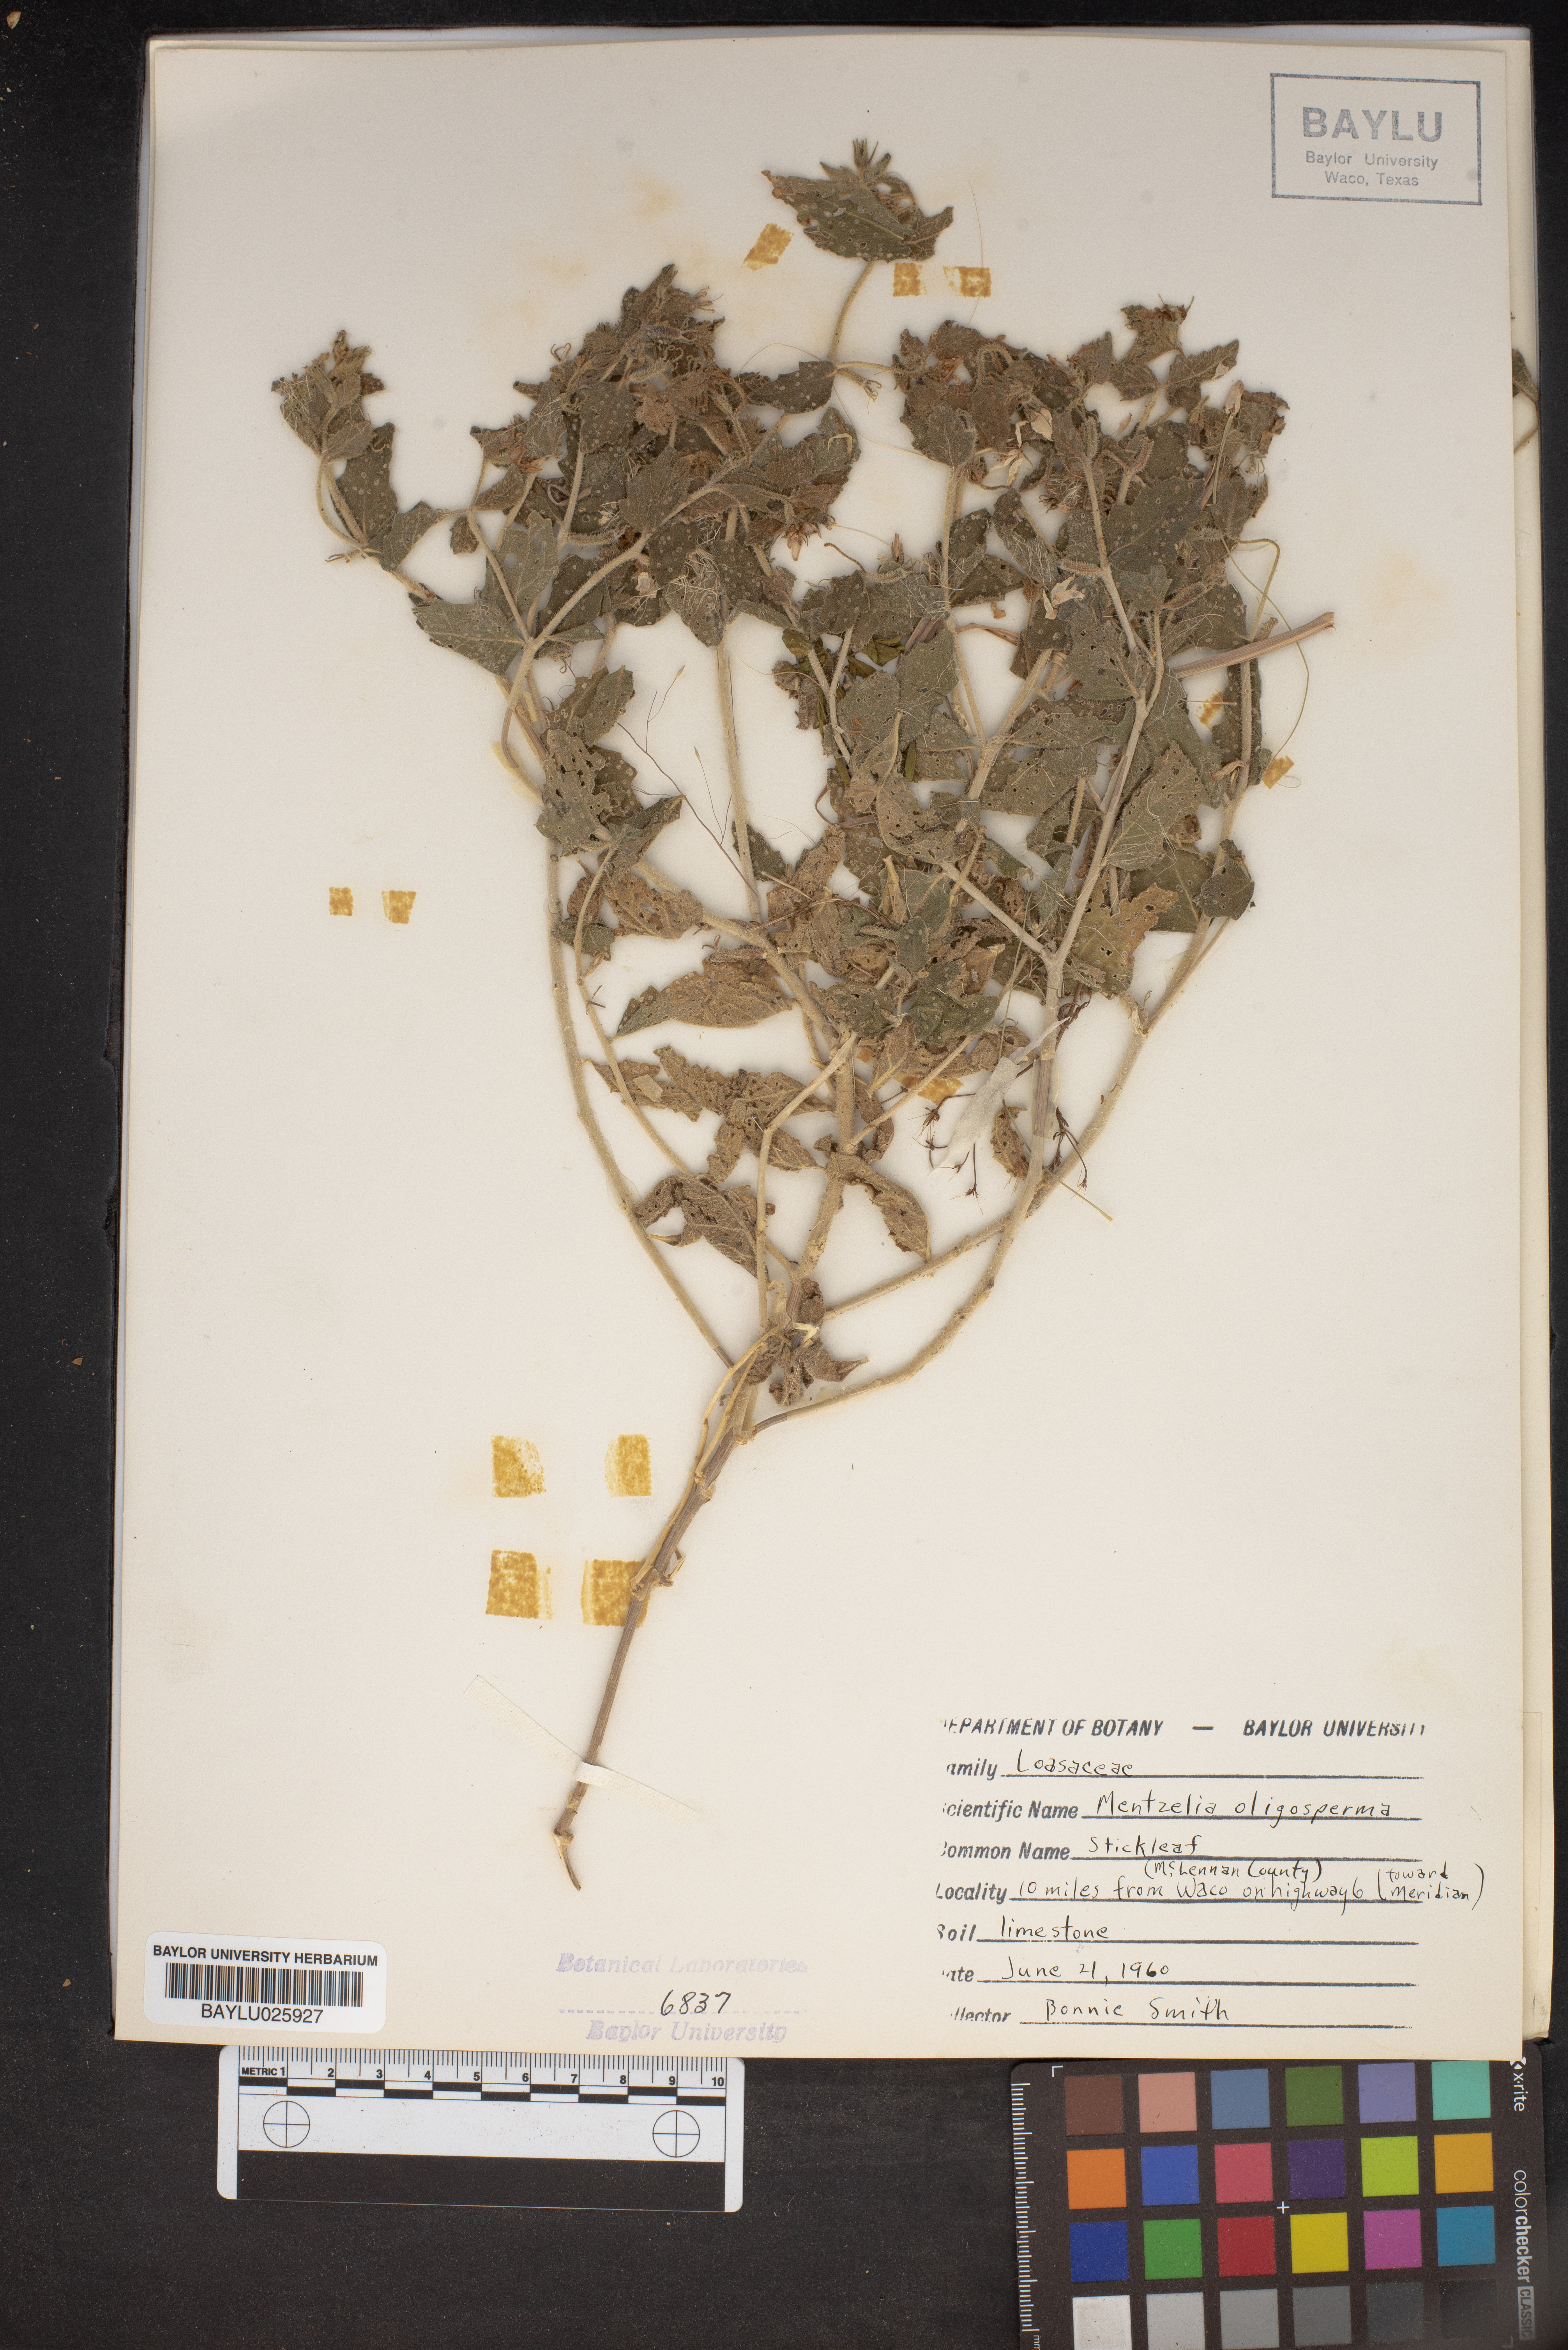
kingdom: Plantae
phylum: Tracheophyta
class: Magnoliopsida
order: Cornales
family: Loasaceae
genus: Mentzelia
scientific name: Mentzelia oligosperma
